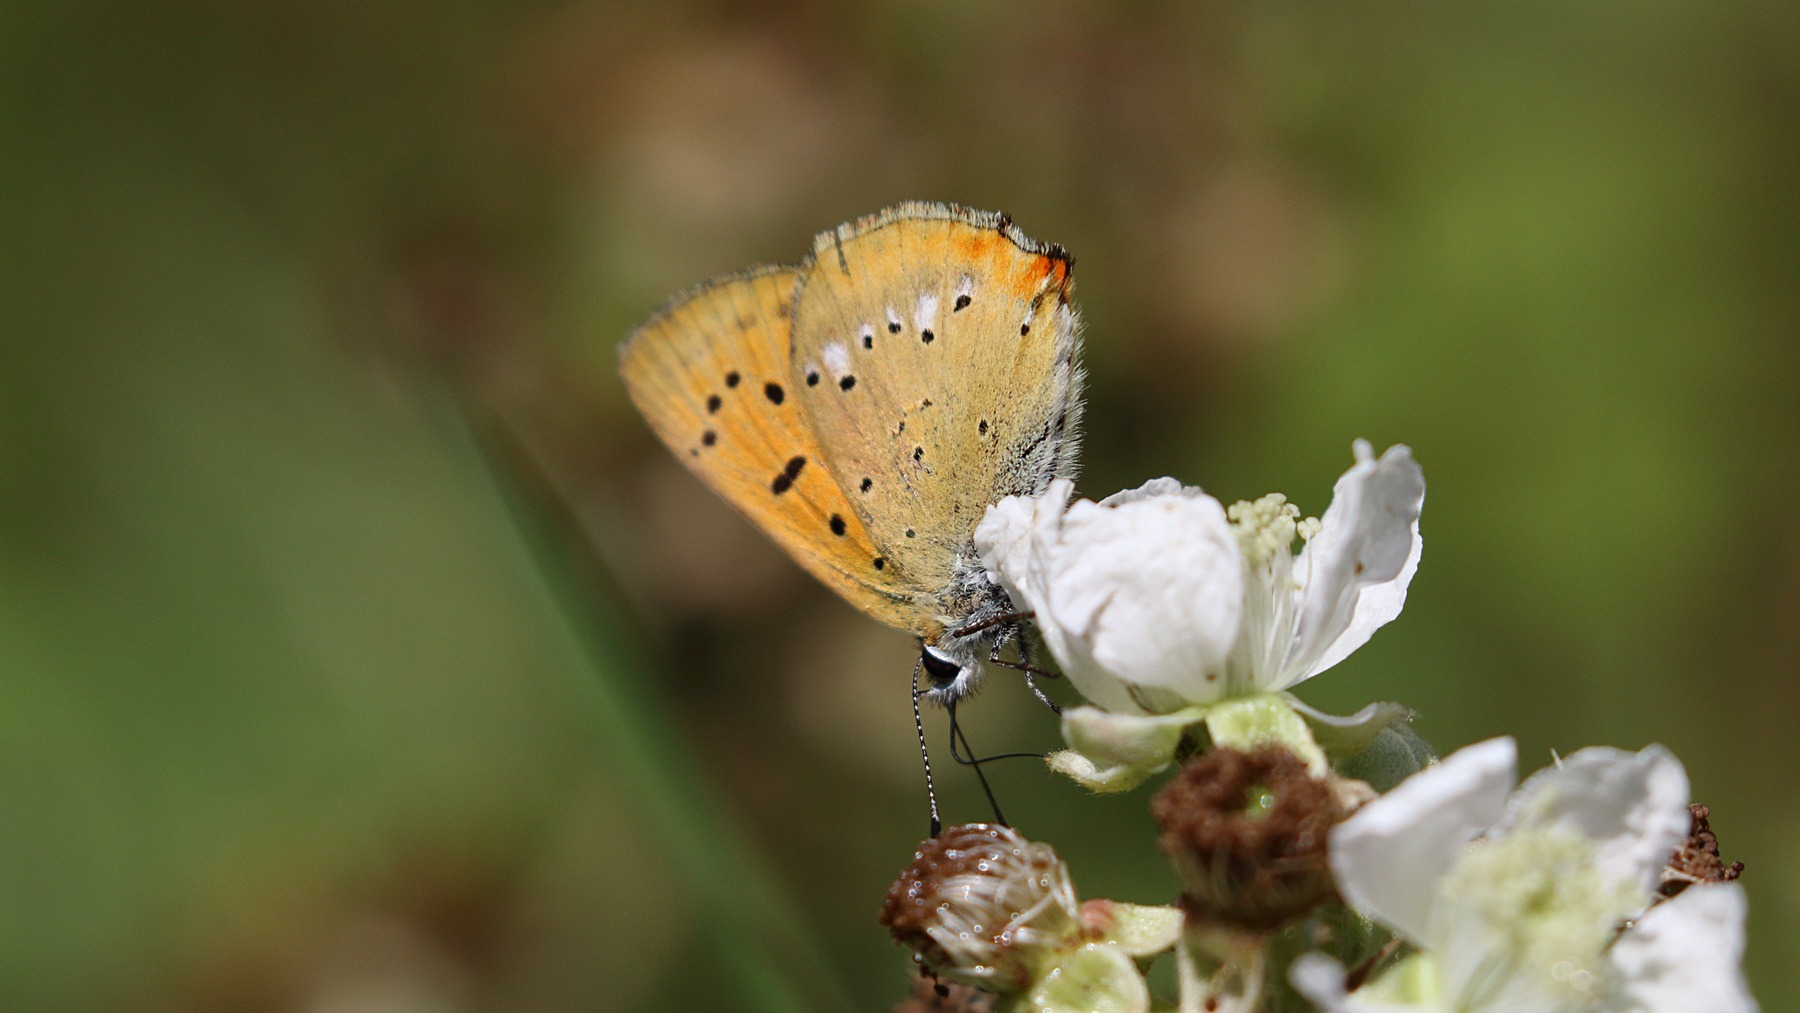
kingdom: Animalia
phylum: Arthropoda
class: Insecta
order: Lepidoptera
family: Lycaenidae
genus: Lycaena
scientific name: Lycaena virgaureae
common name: Dukatsommerfugl
